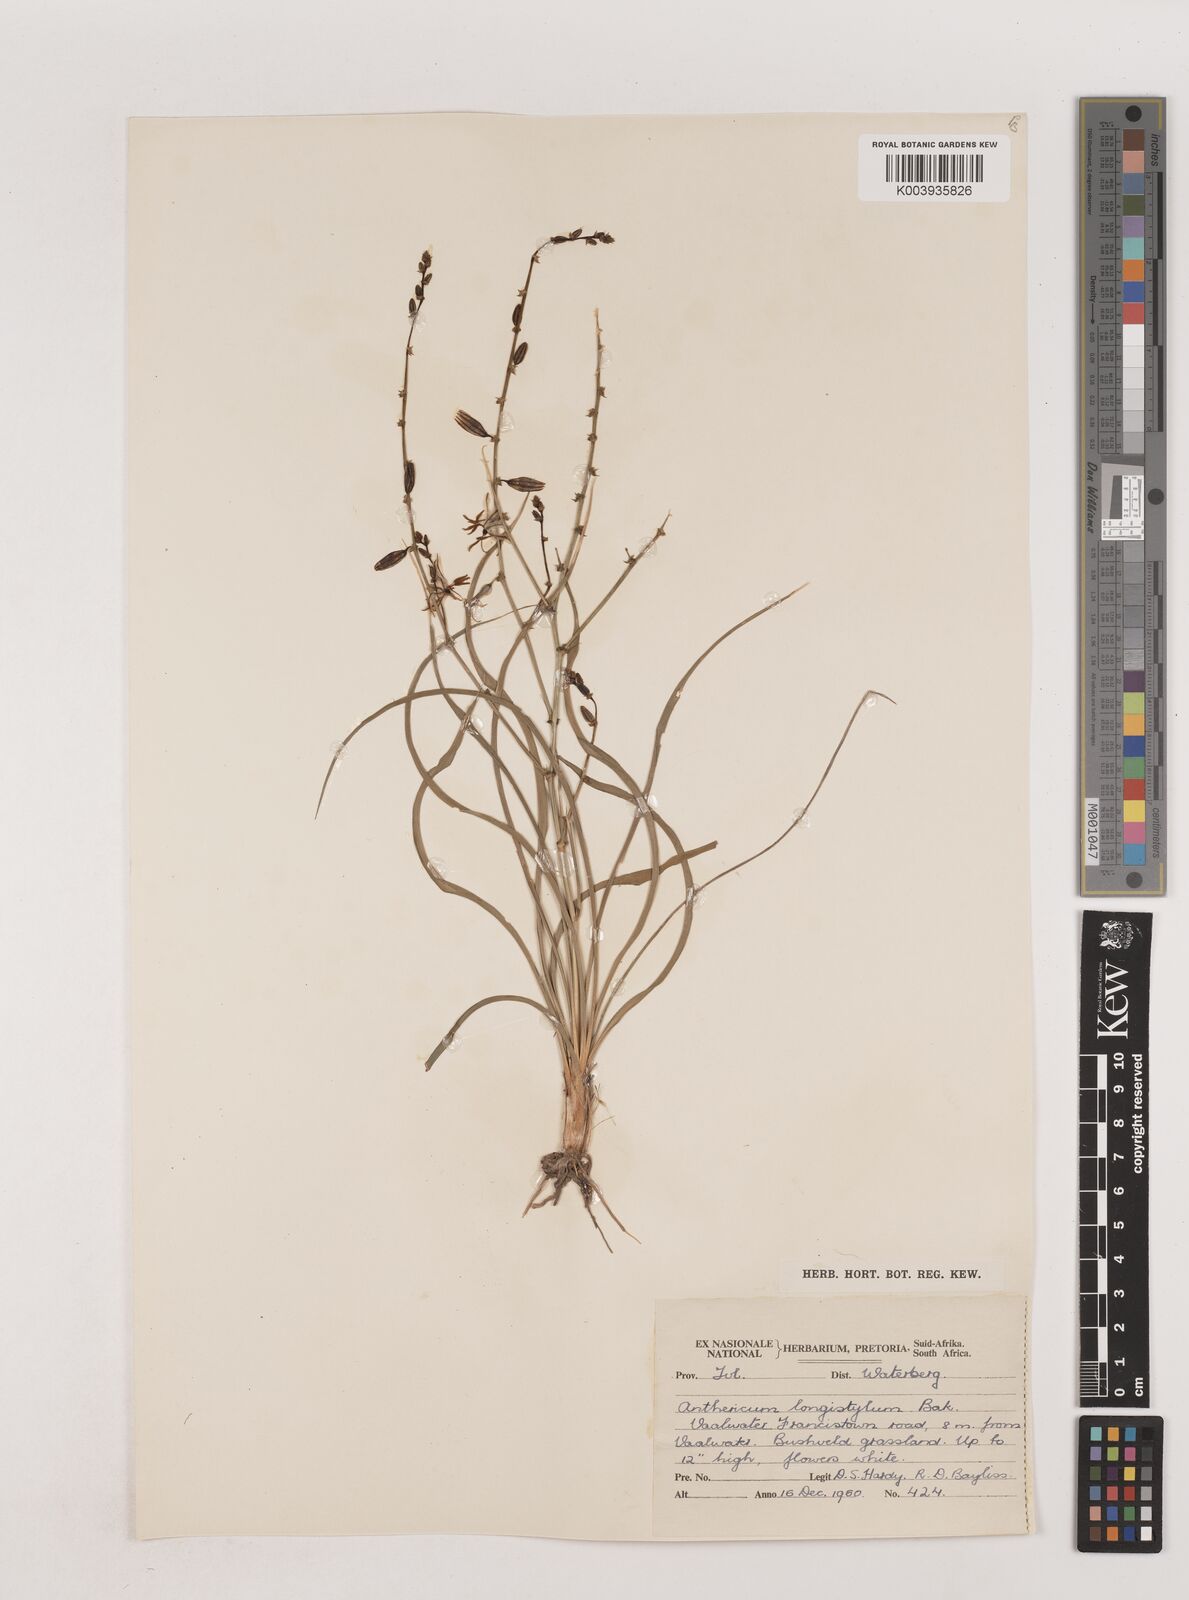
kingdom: Plantae
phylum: Tracheophyta
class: Liliopsida
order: Asparagales
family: Asparagaceae
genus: Chlorophytum
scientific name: Chlorophytum recurvifolium
